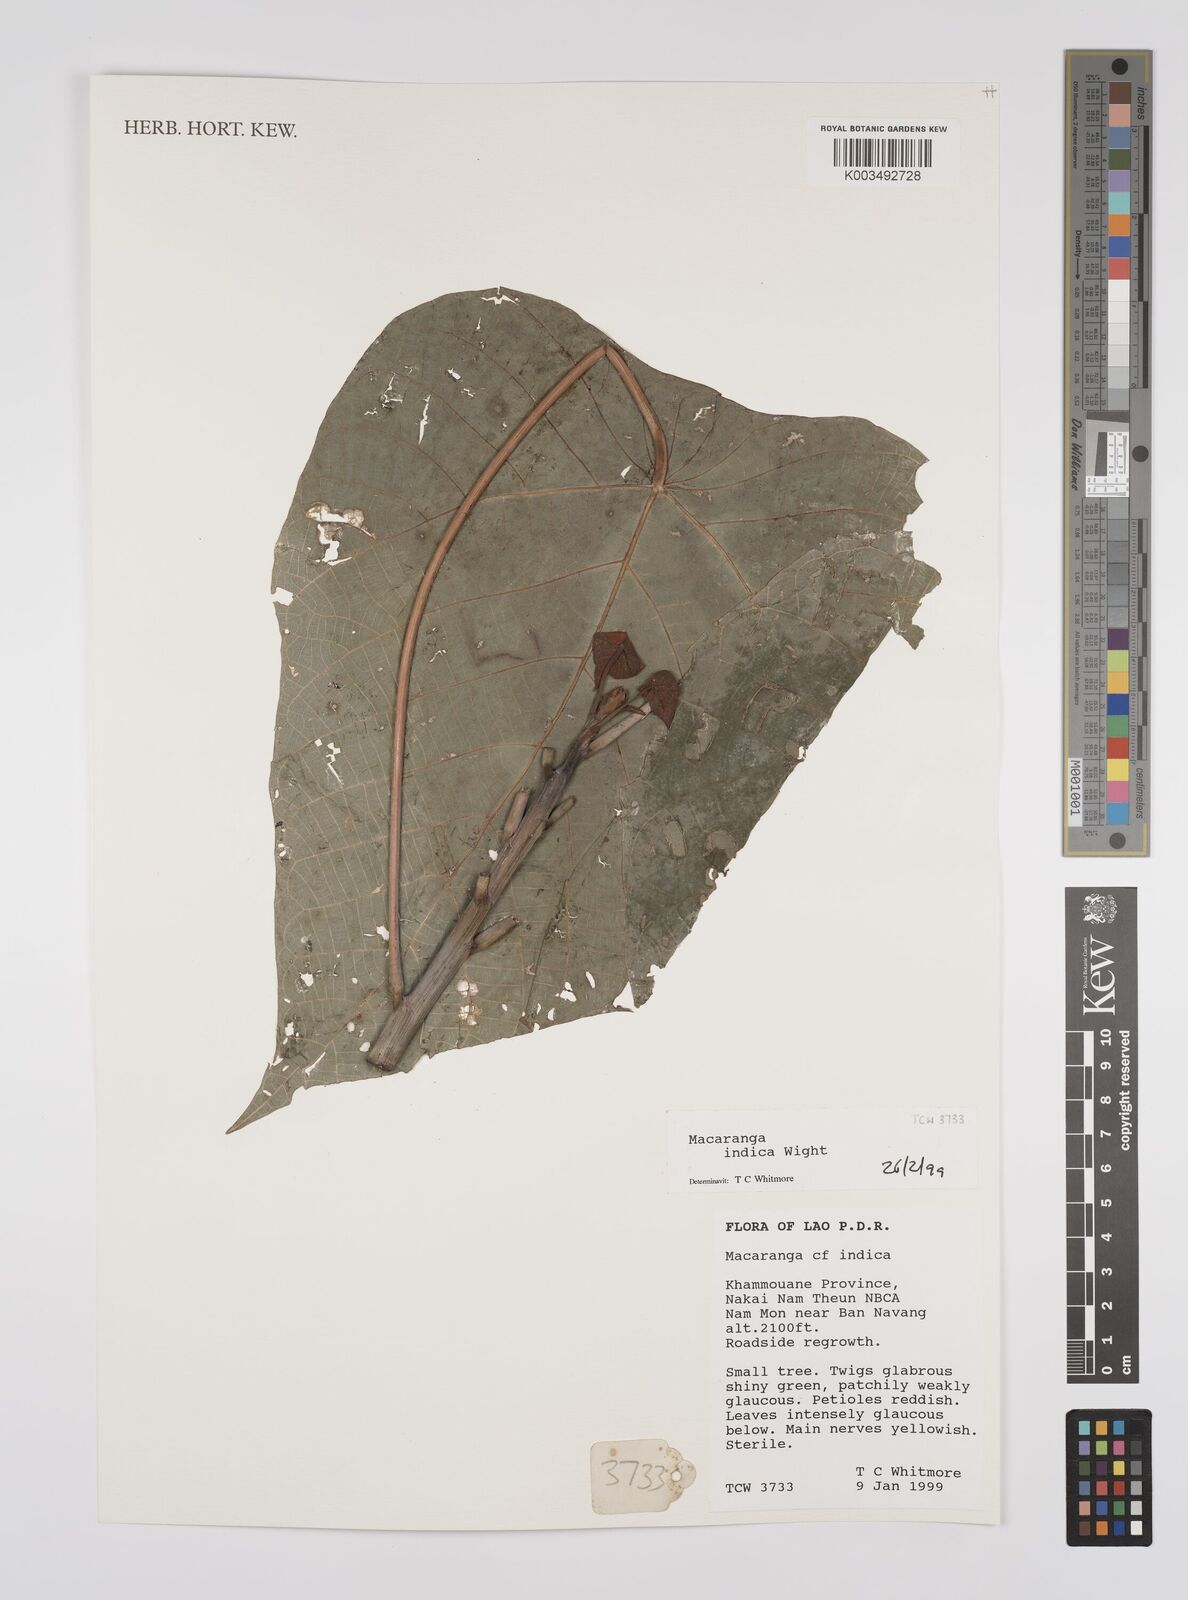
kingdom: Plantae
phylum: Tracheophyta
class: Magnoliopsida
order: Malpighiales
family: Euphorbiaceae
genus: Macaranga
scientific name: Macaranga indica
